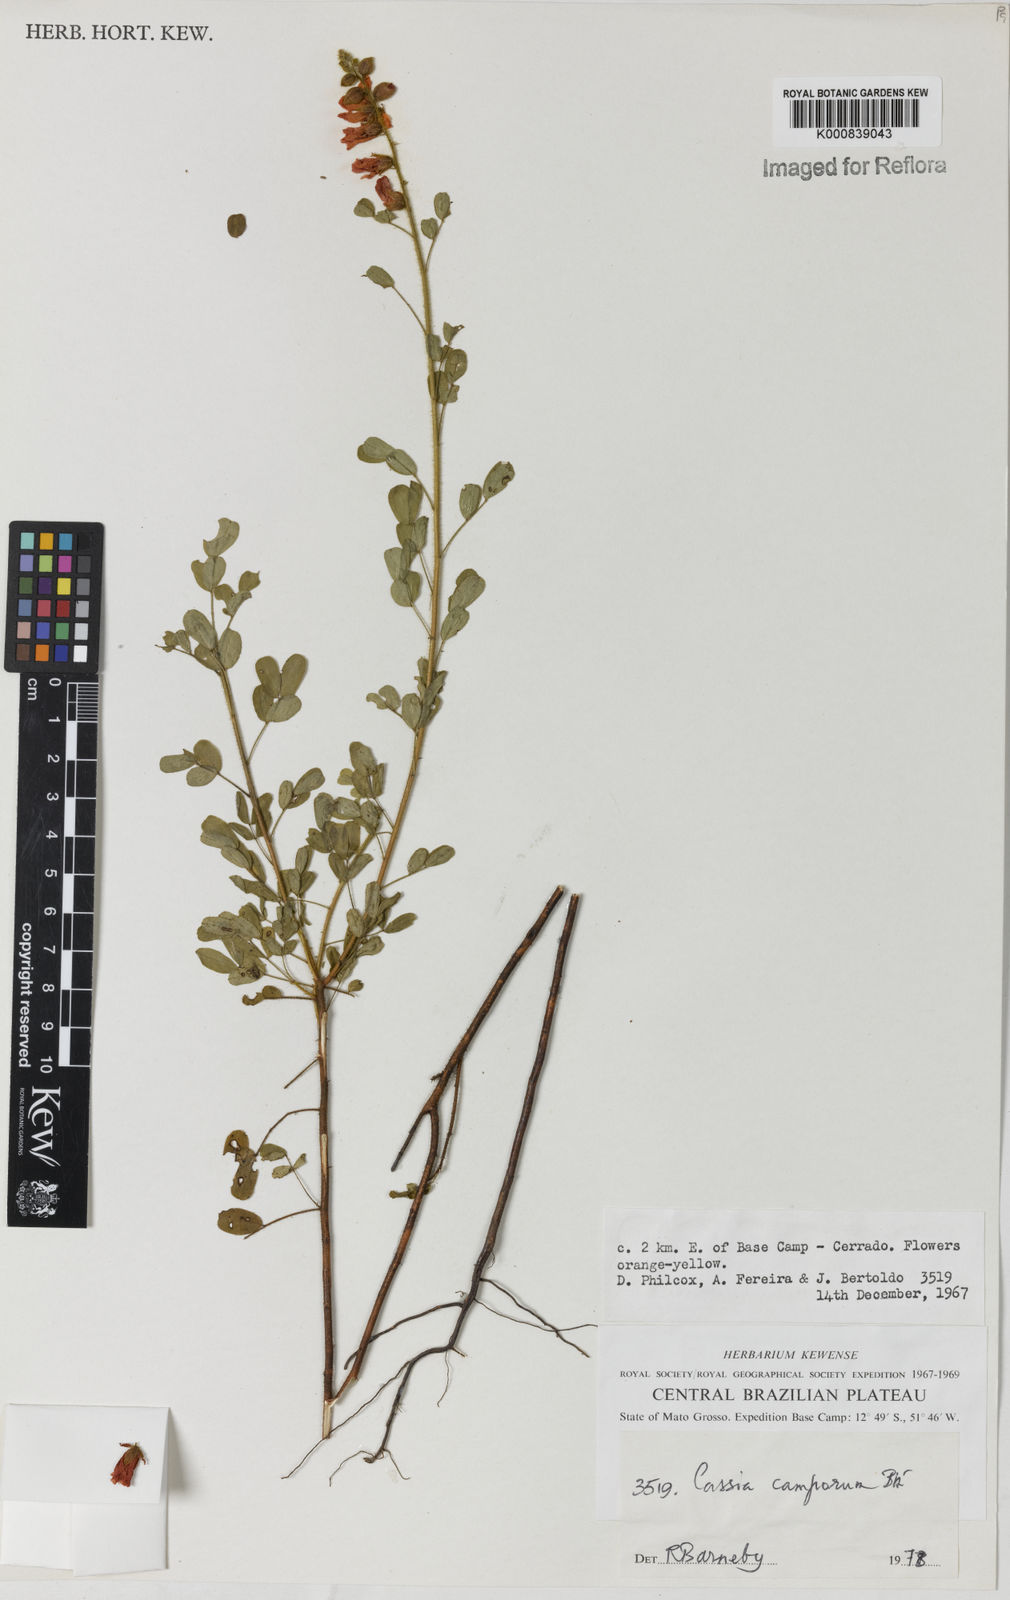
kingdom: Plantae
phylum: Tracheophyta
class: Magnoliopsida
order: Fabales
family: Fabaceae
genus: Chamaecrista
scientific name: Chamaecrista campestris
